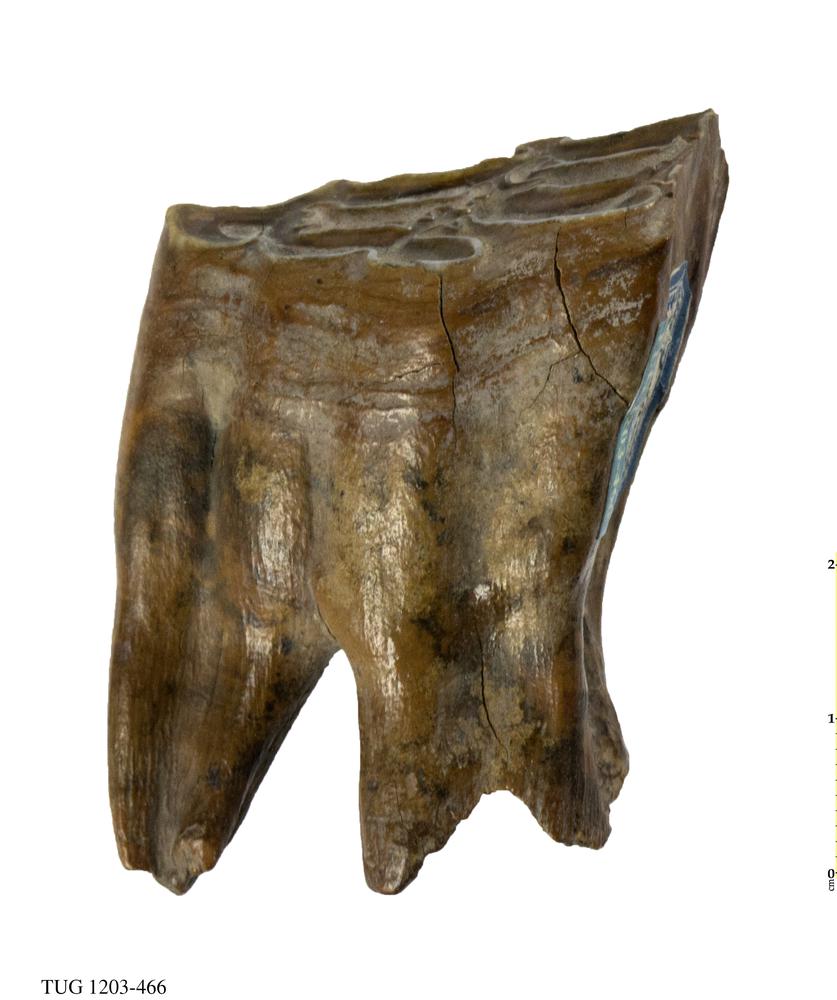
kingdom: Animalia
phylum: Chordata
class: Mammalia
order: Perissodactyla
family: Equidae
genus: Equus
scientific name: Equus
